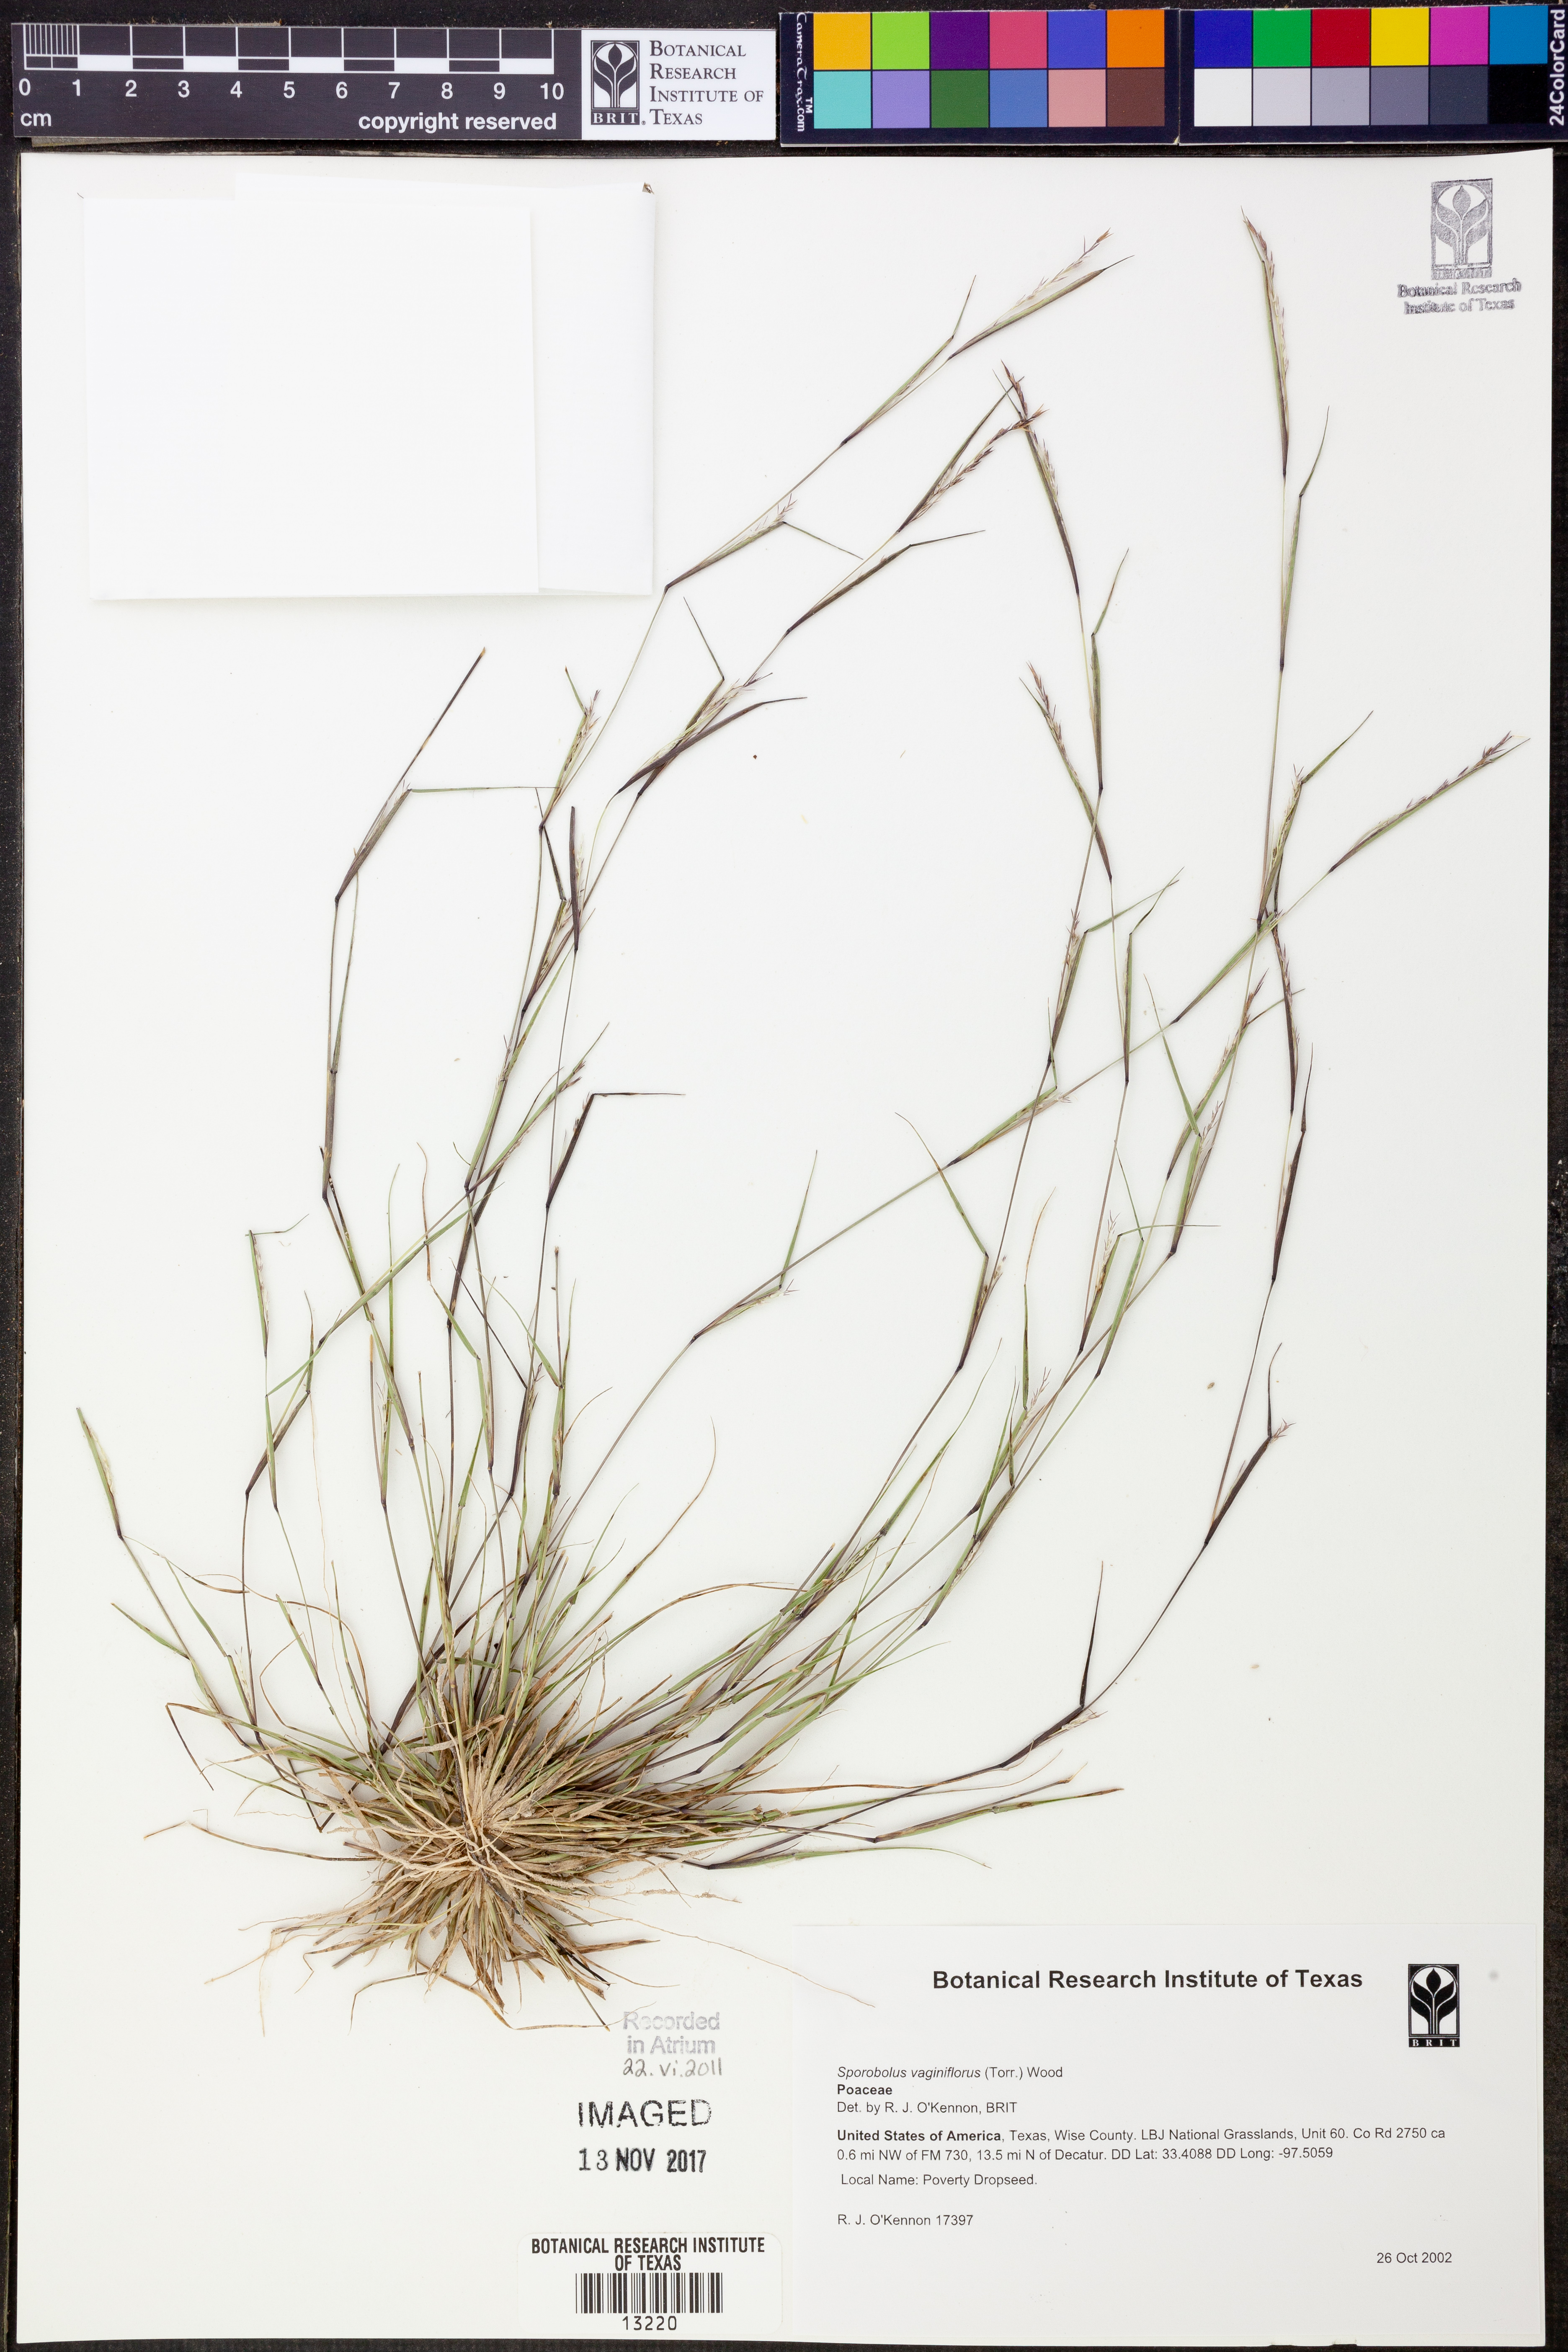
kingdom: Plantae
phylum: Tracheophyta
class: Liliopsida
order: Poales
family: Poaceae
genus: Sporobolus
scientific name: Sporobolus vaginiflorus
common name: Poverty dropseed
